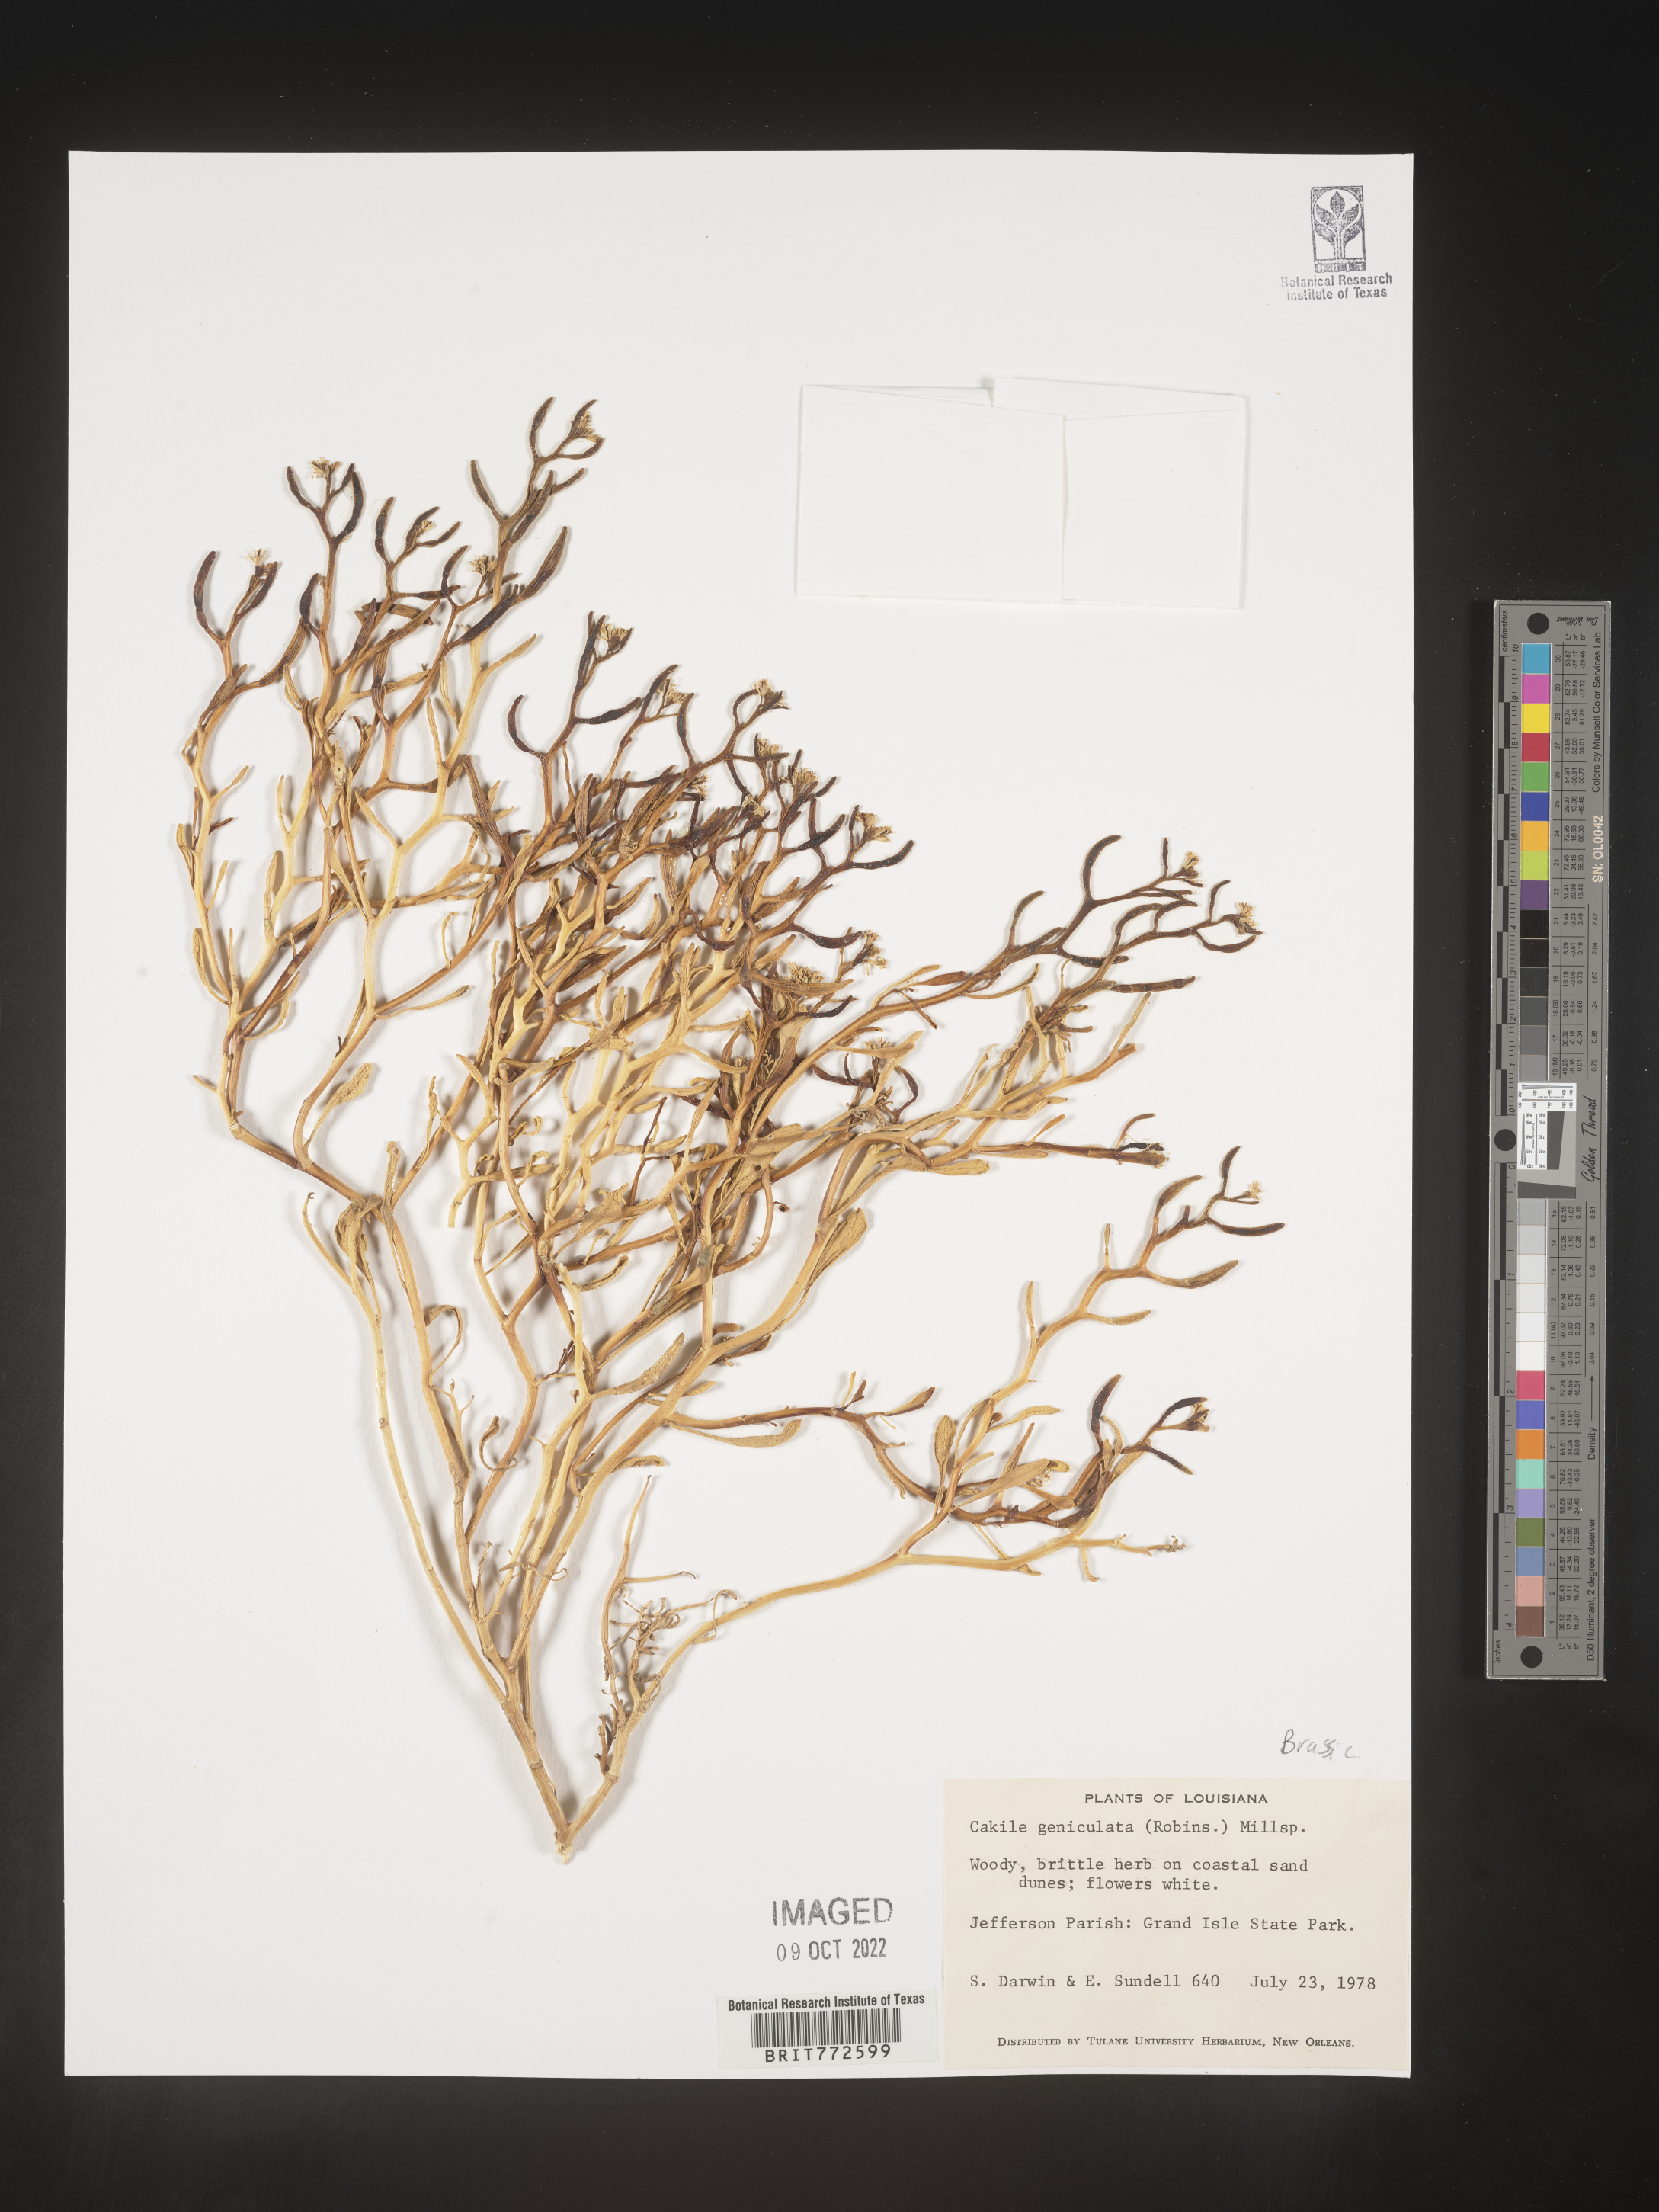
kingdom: Plantae
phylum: Tracheophyta
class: Magnoliopsida
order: Brassicales
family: Brassicaceae
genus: Cakile
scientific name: Cakile geniculata
